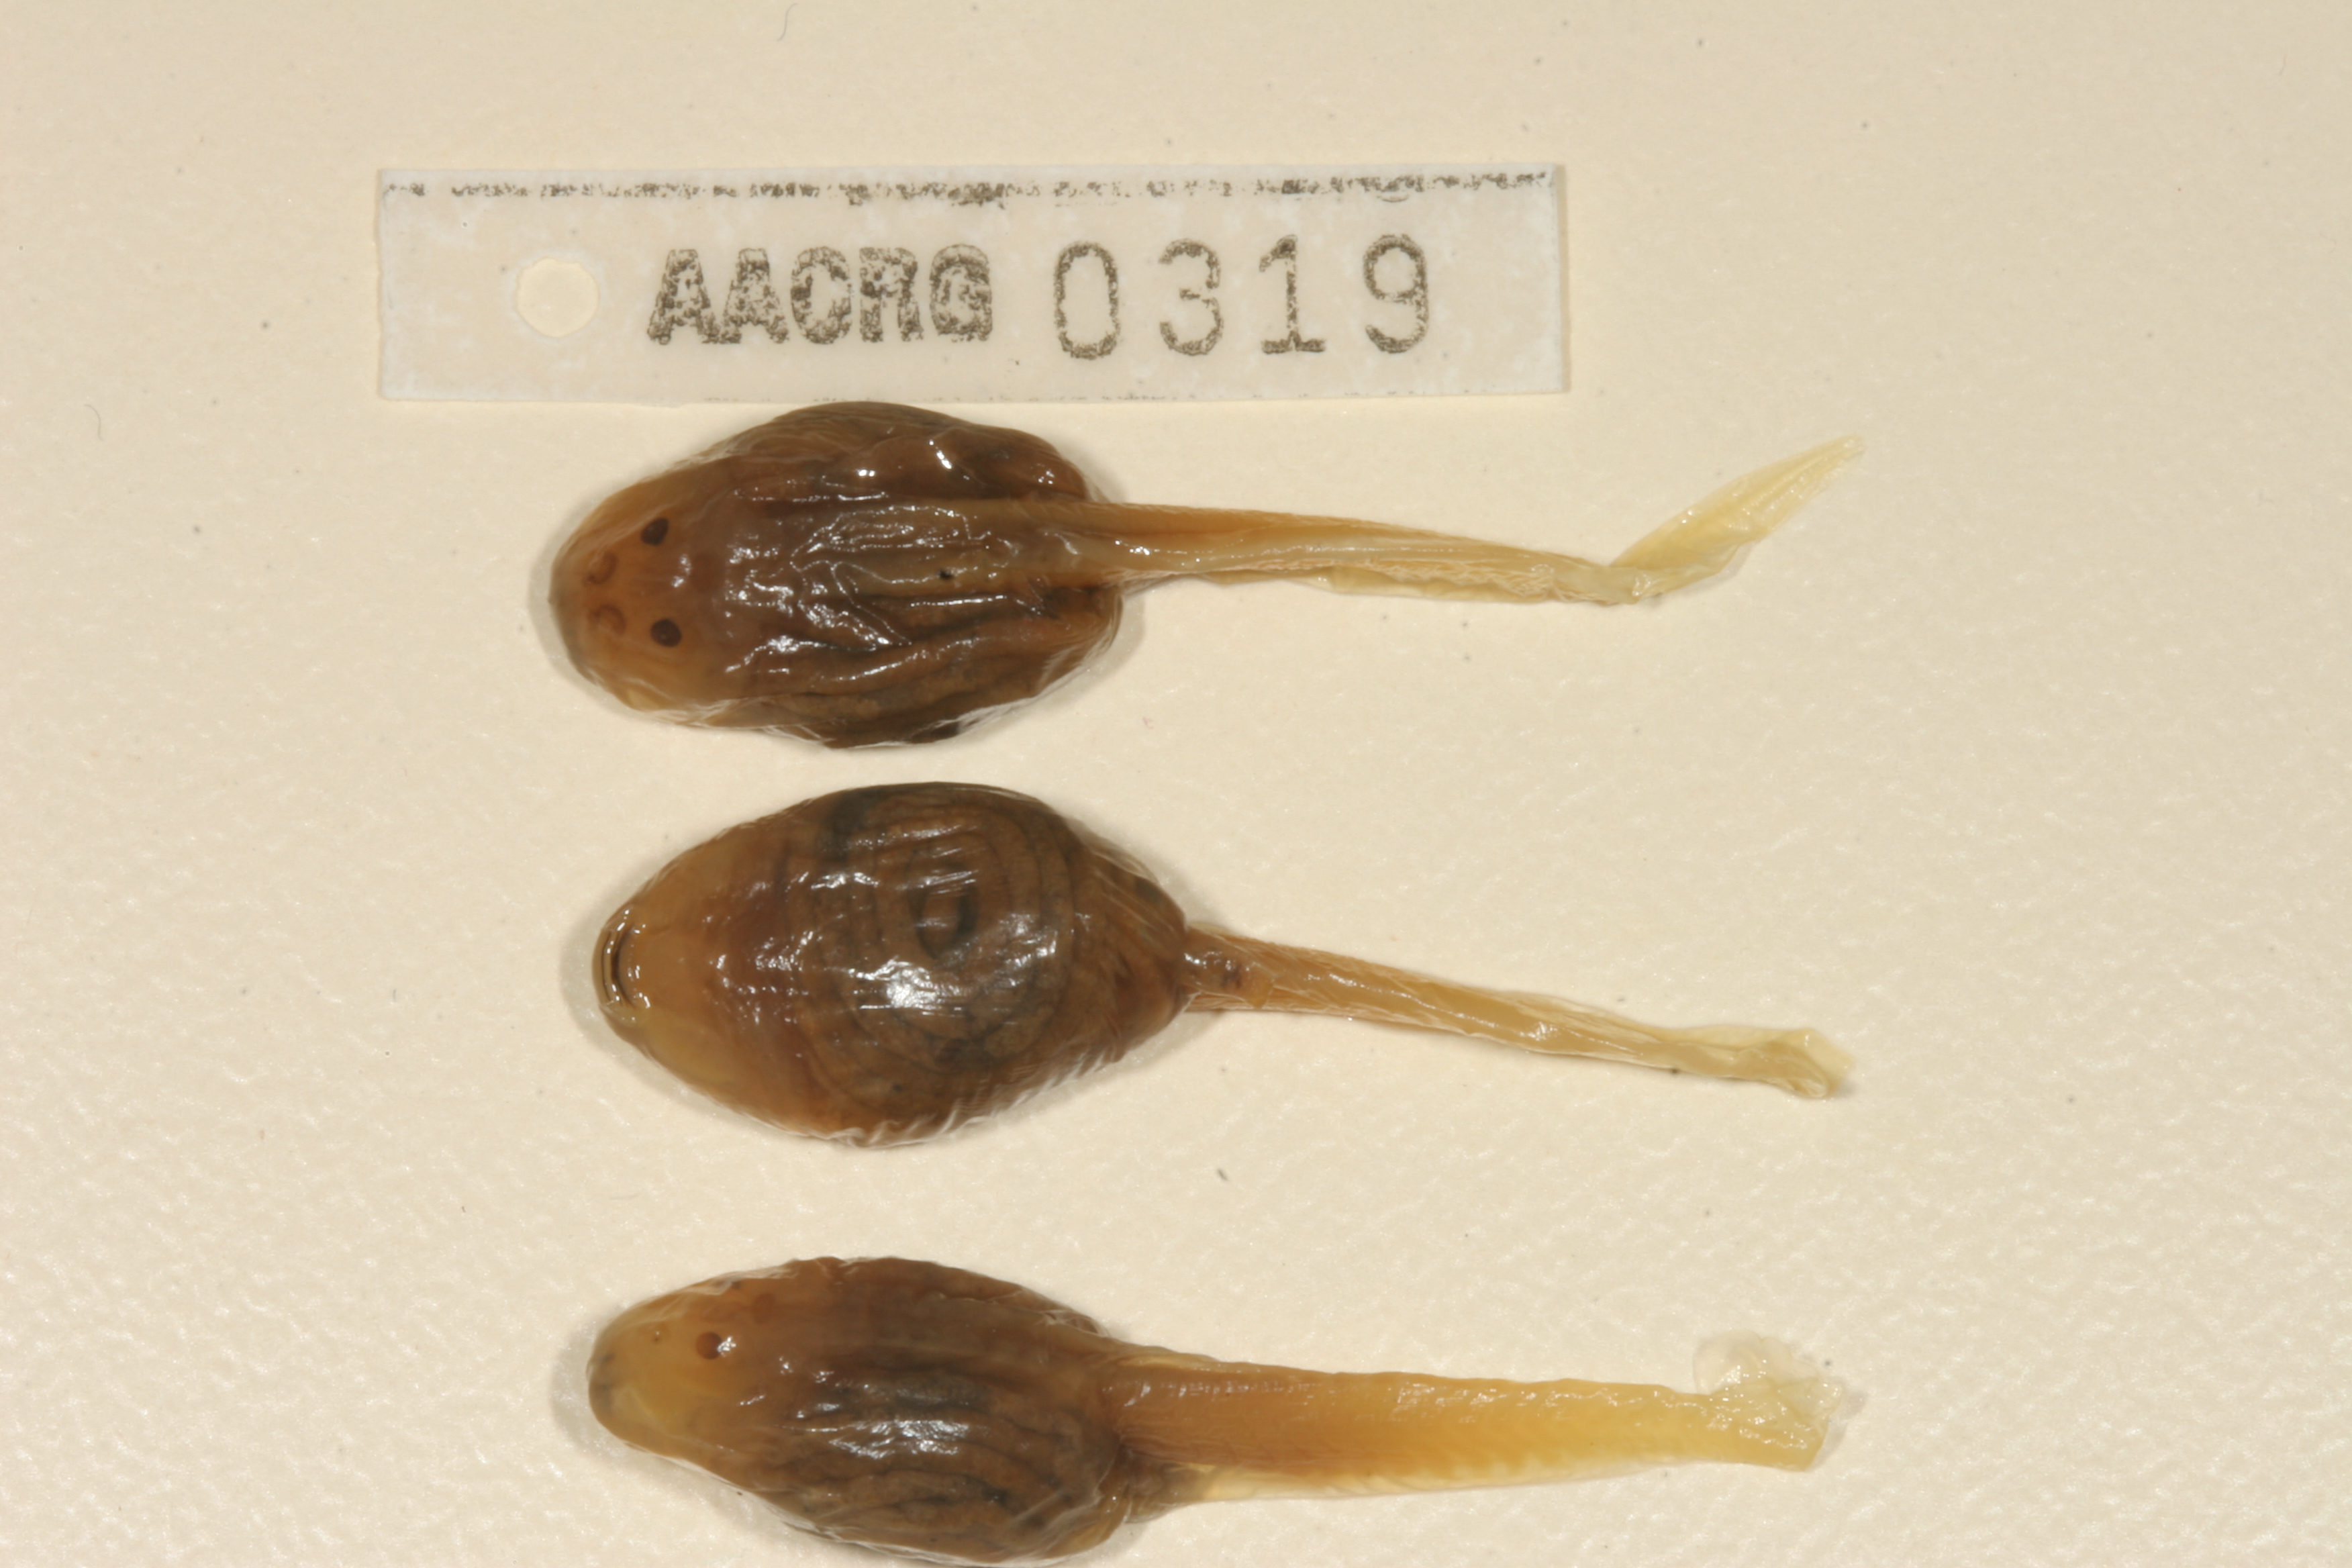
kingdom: Animalia
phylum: Chordata
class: Amphibia
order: Anura
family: Pyxicephalidae
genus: Pyxicephalus
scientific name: Pyxicephalus adspersus
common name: African bullfrog
